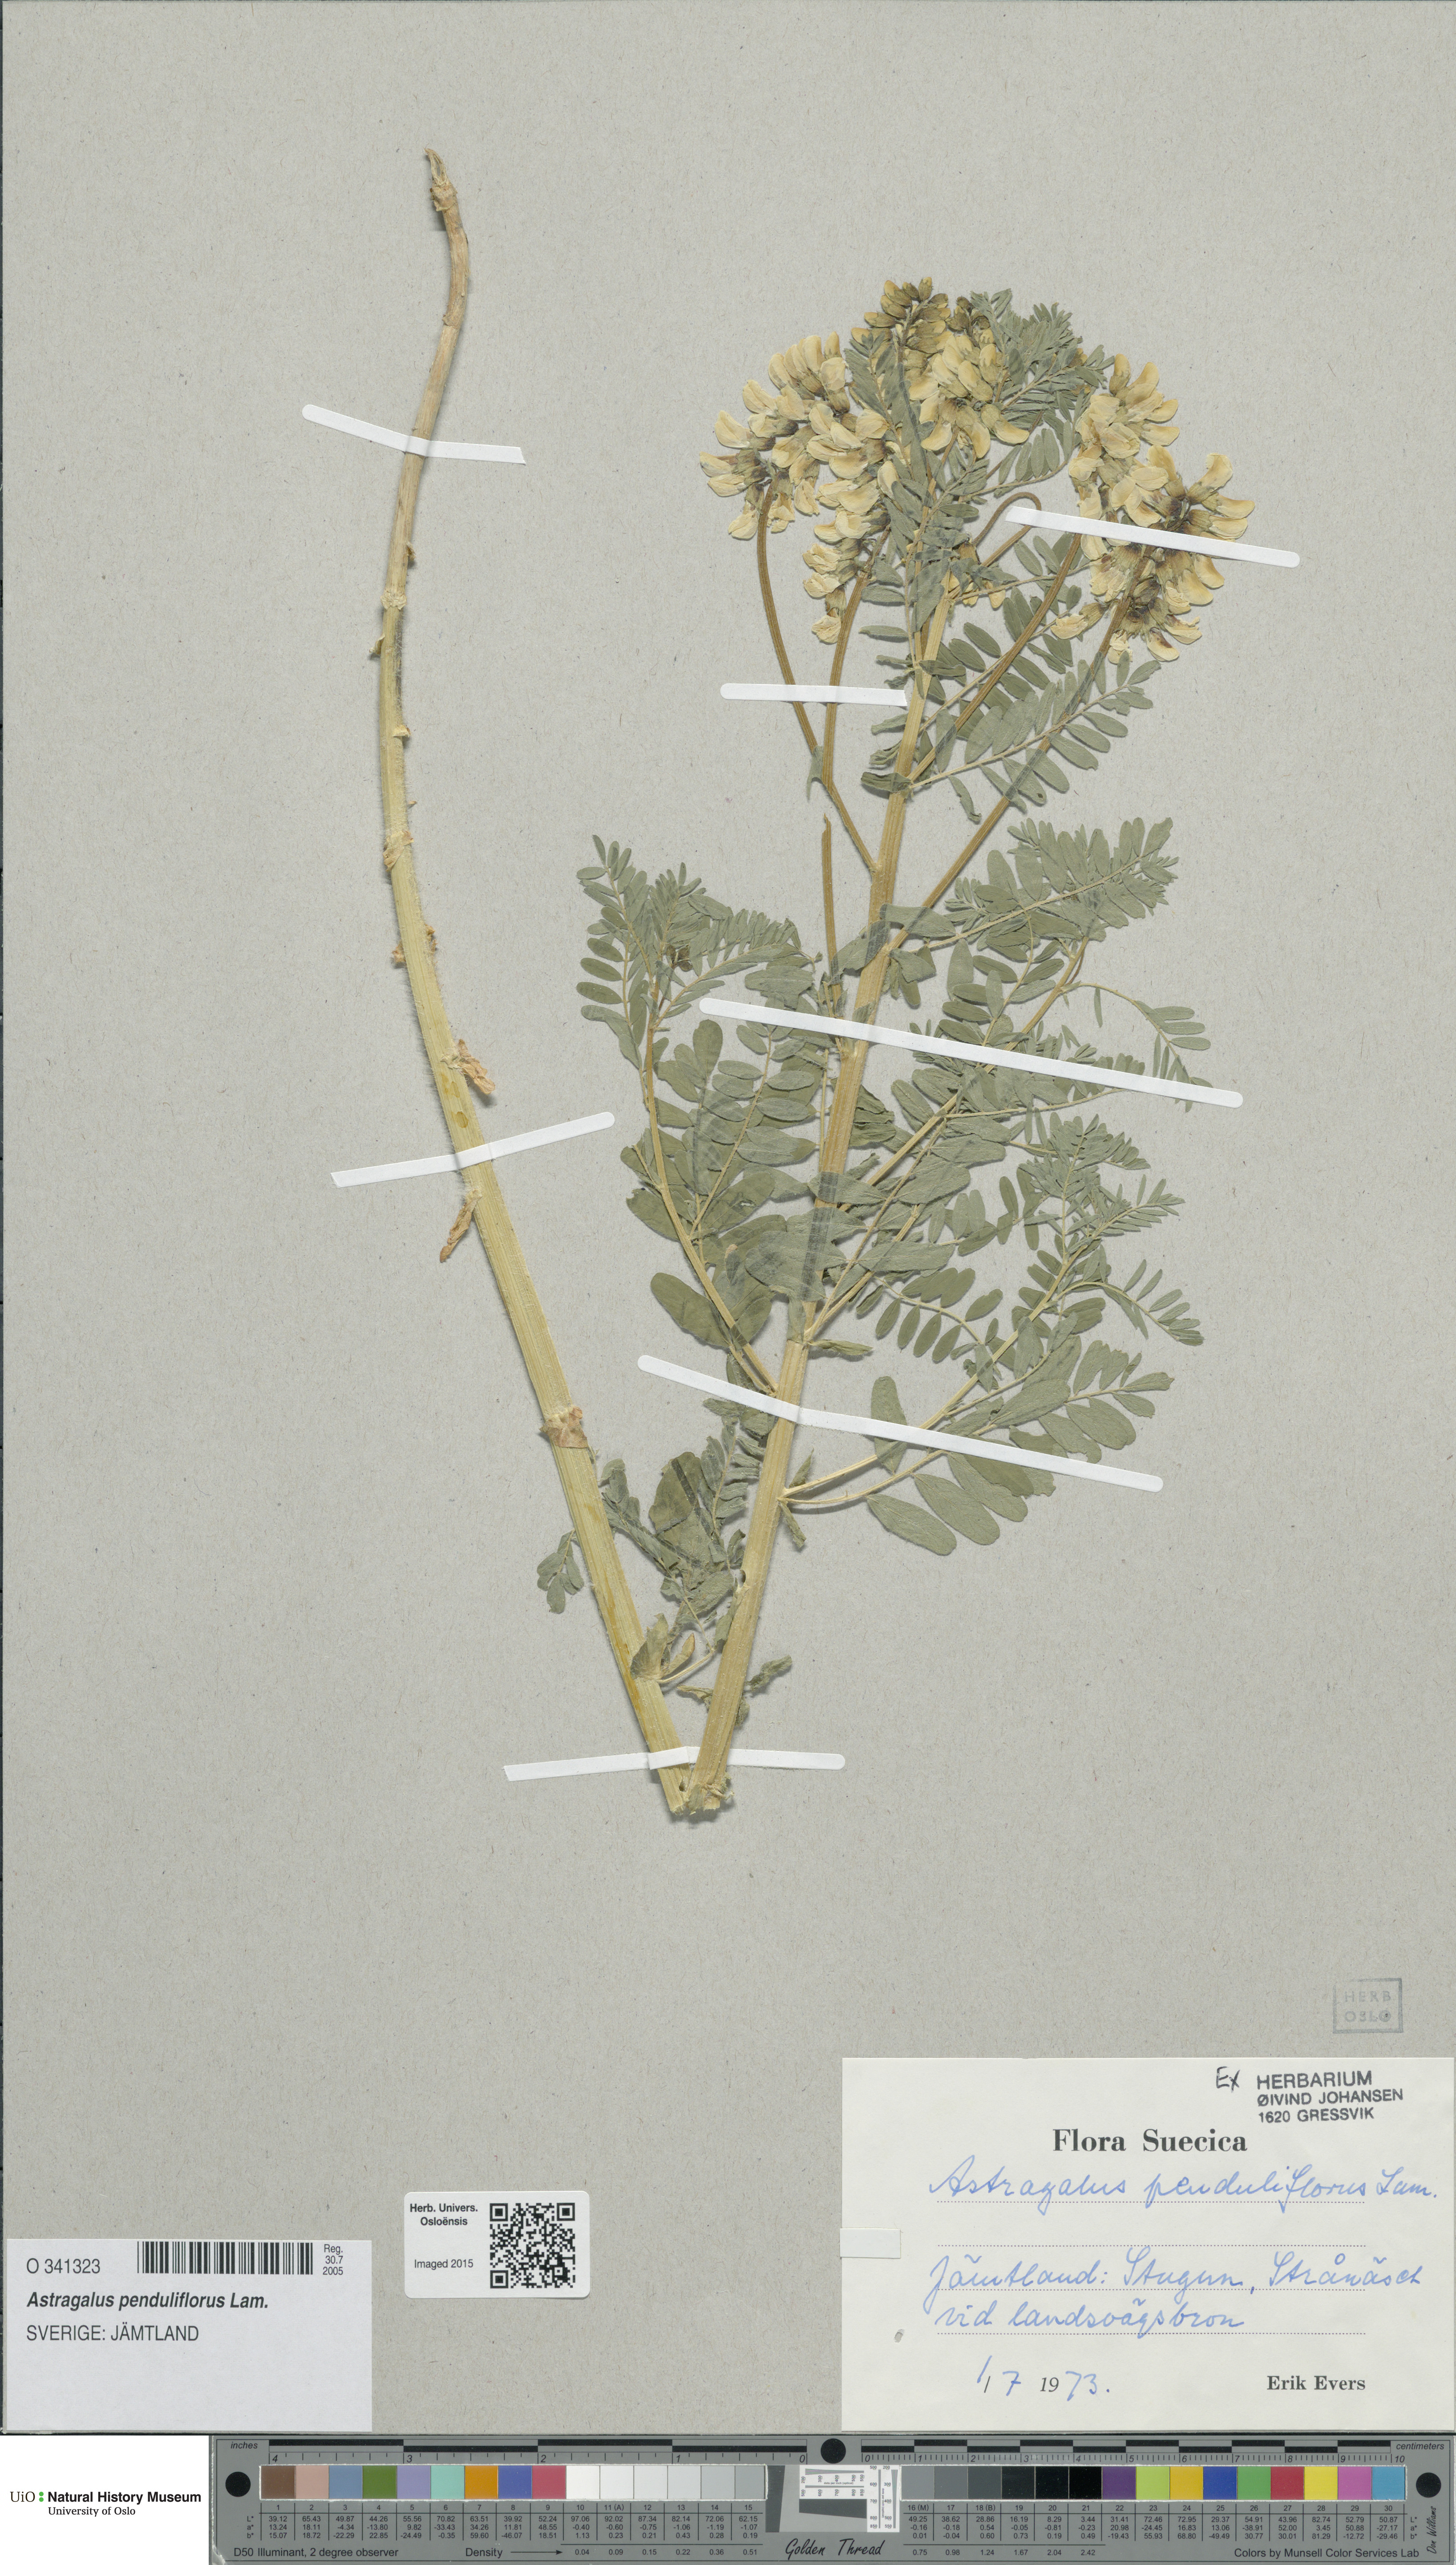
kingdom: Plantae
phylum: Tracheophyta
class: Magnoliopsida
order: Fabales
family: Fabaceae
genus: Astragalus
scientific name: Astragalus penduliflorus
